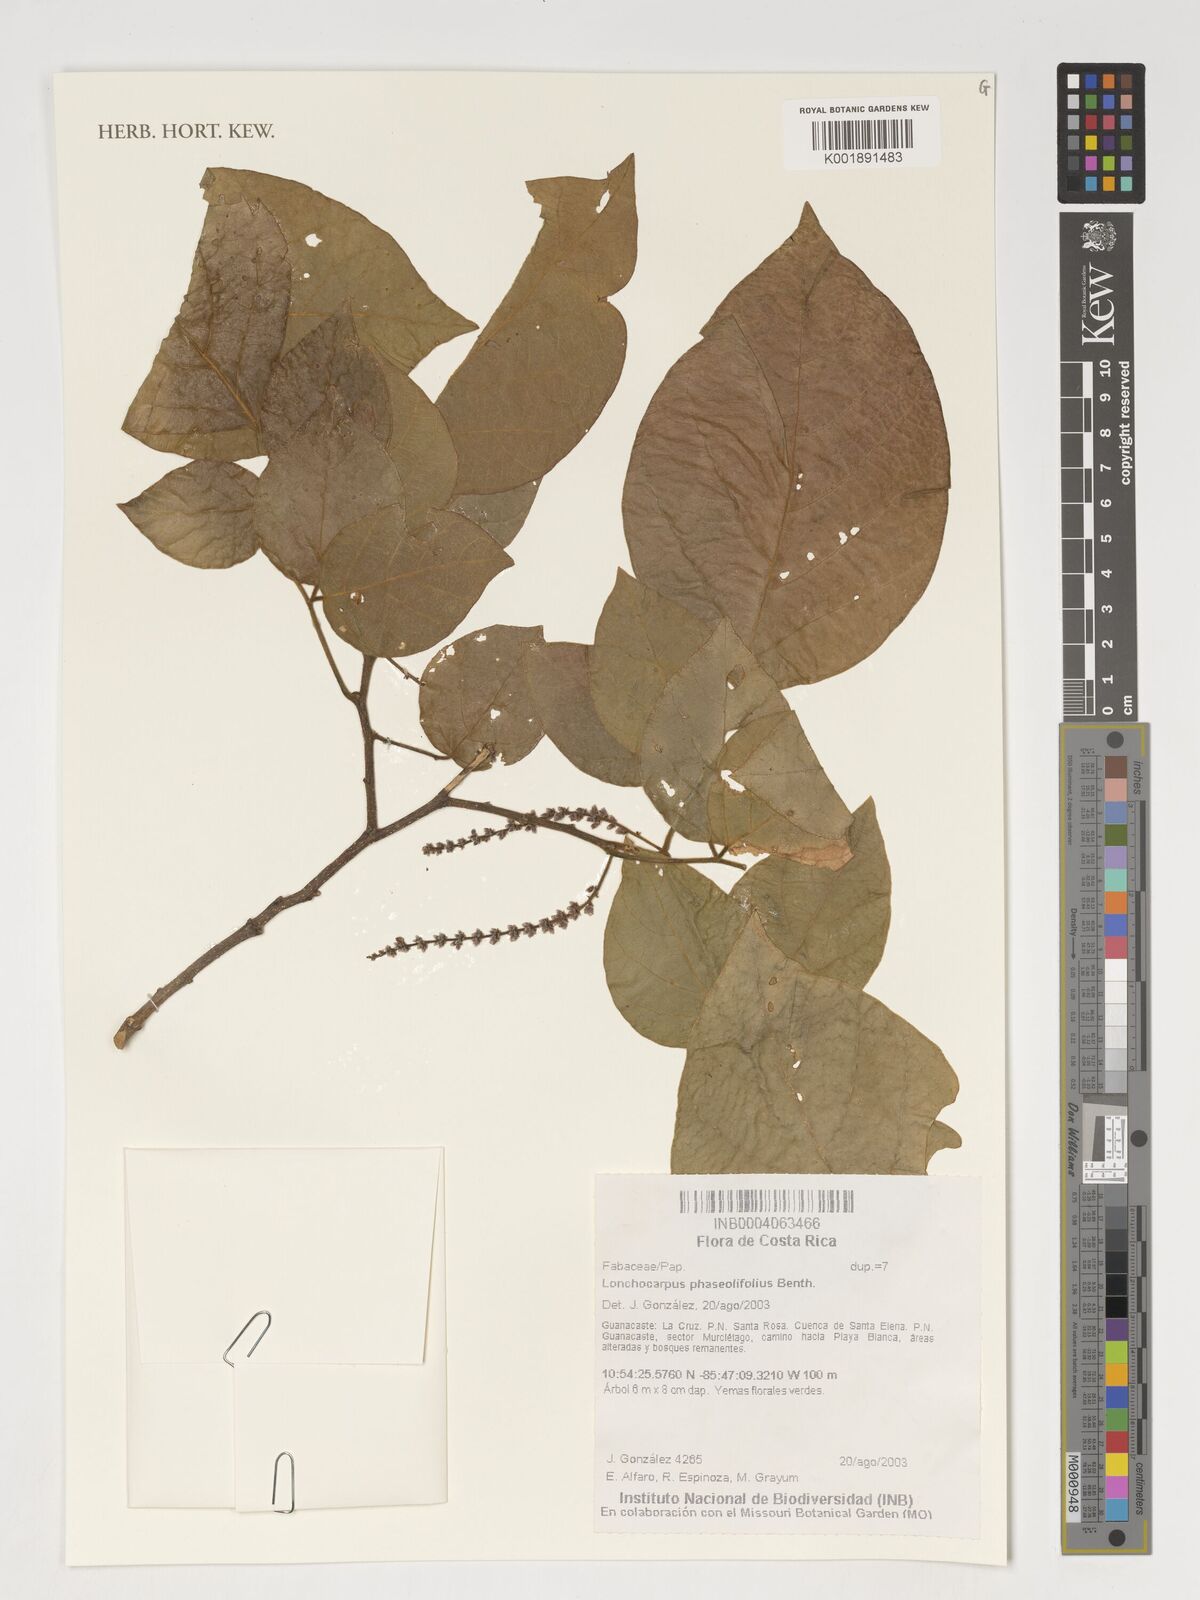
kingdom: Plantae
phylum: Tracheophyta
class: Magnoliopsida
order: Fabales
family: Fabaceae
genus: Lonchocarpus
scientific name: Lonchocarpus phaseolifolius
